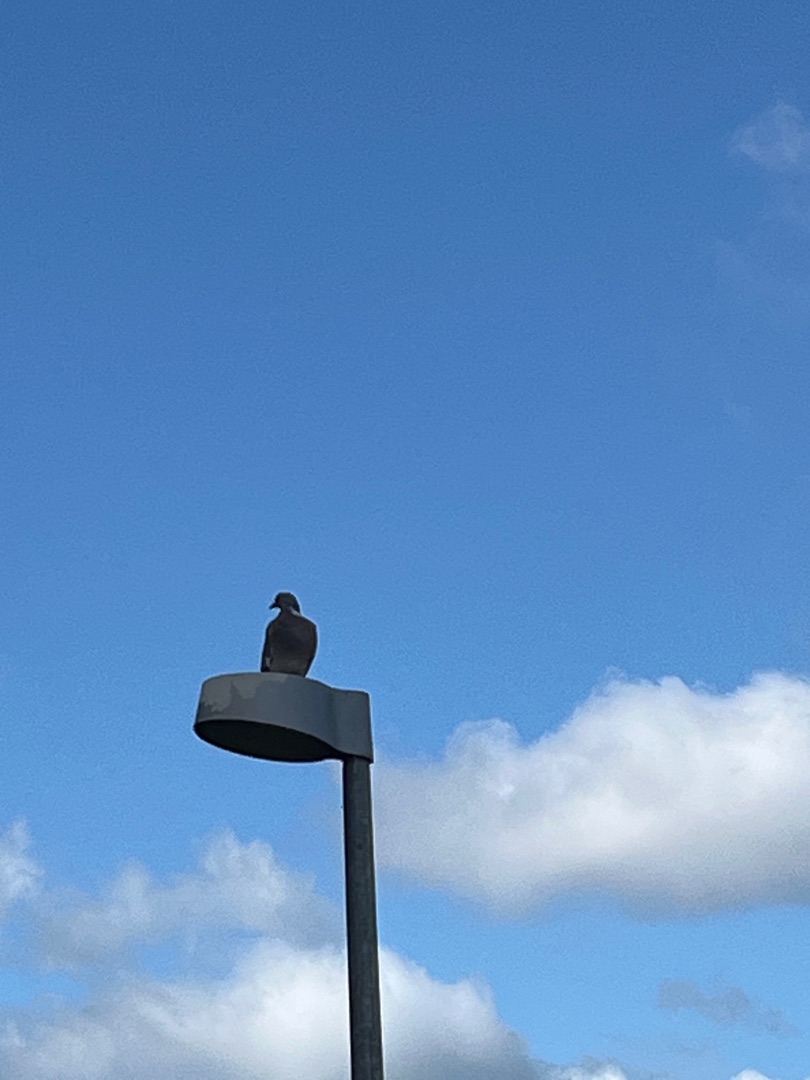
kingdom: Animalia
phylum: Chordata
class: Aves
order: Columbiformes
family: Columbidae
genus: Columba
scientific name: Columba palumbus
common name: Ringdue
